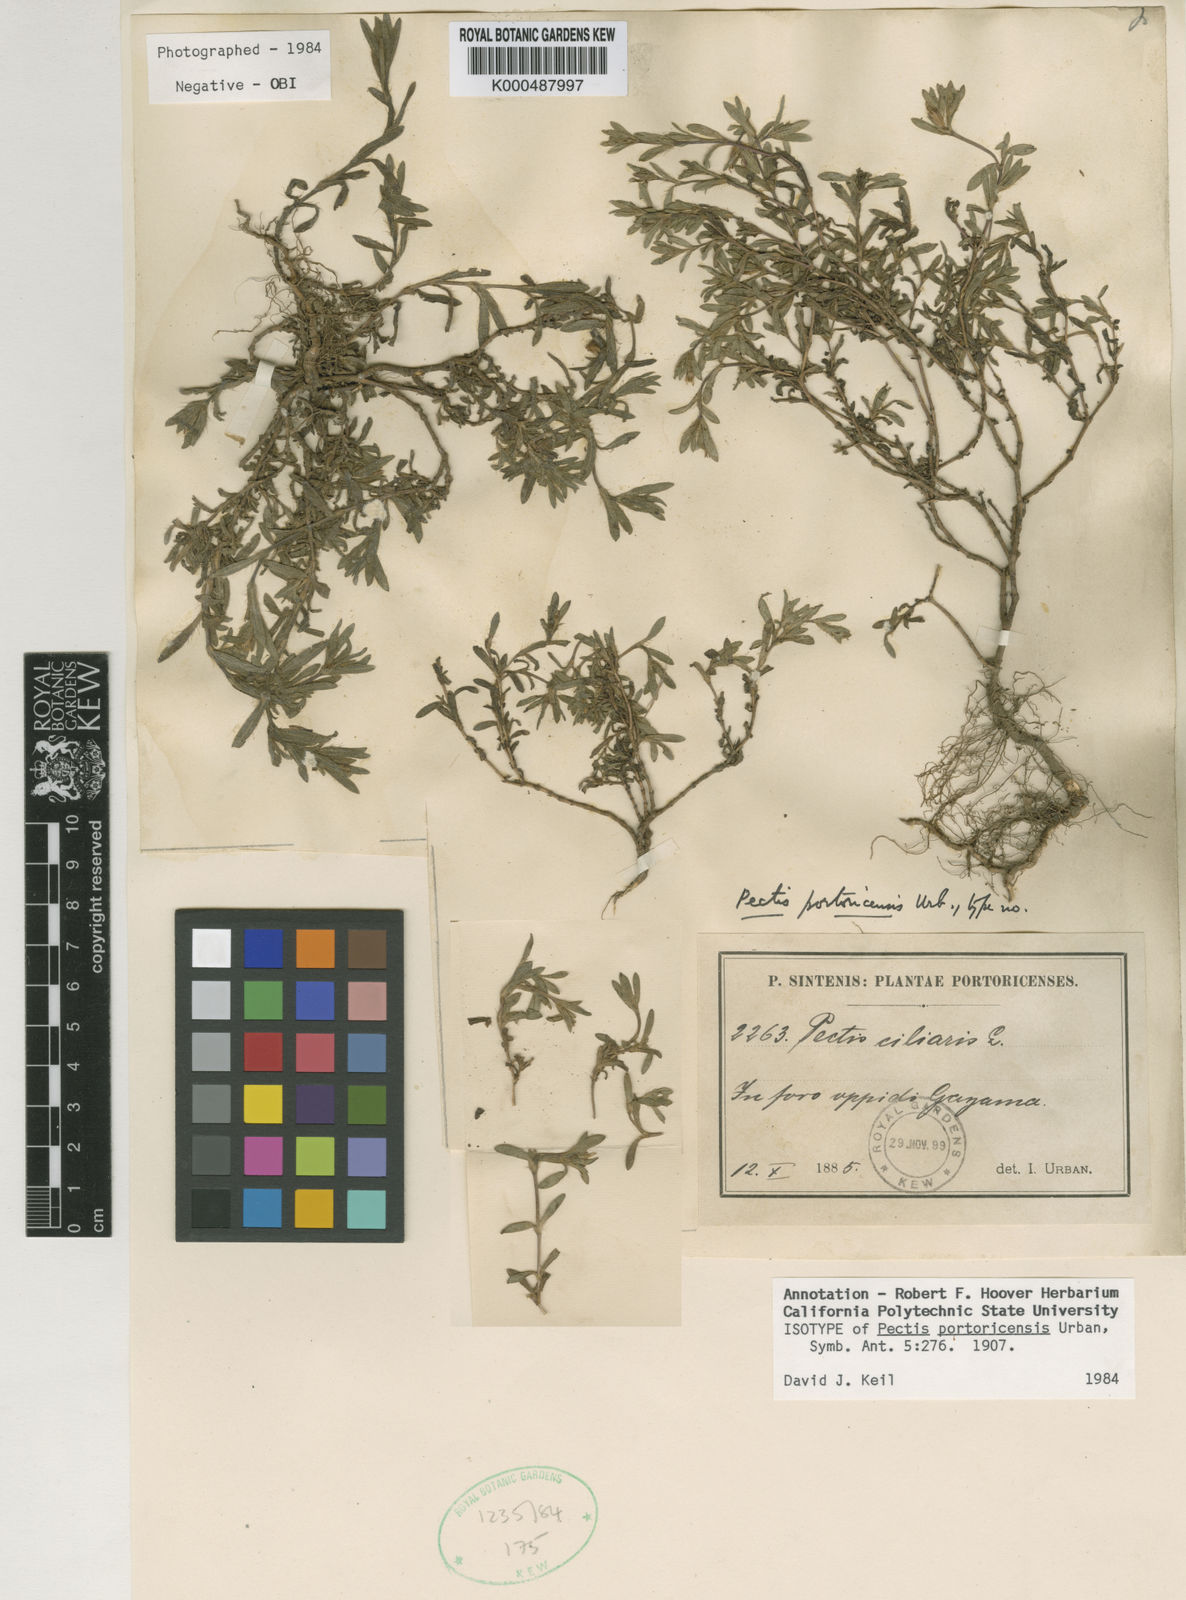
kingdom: Plantae
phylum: Tracheophyta
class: Magnoliopsida
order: Asterales
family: Asteraceae
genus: Pectis
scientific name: Pectis prostrata
